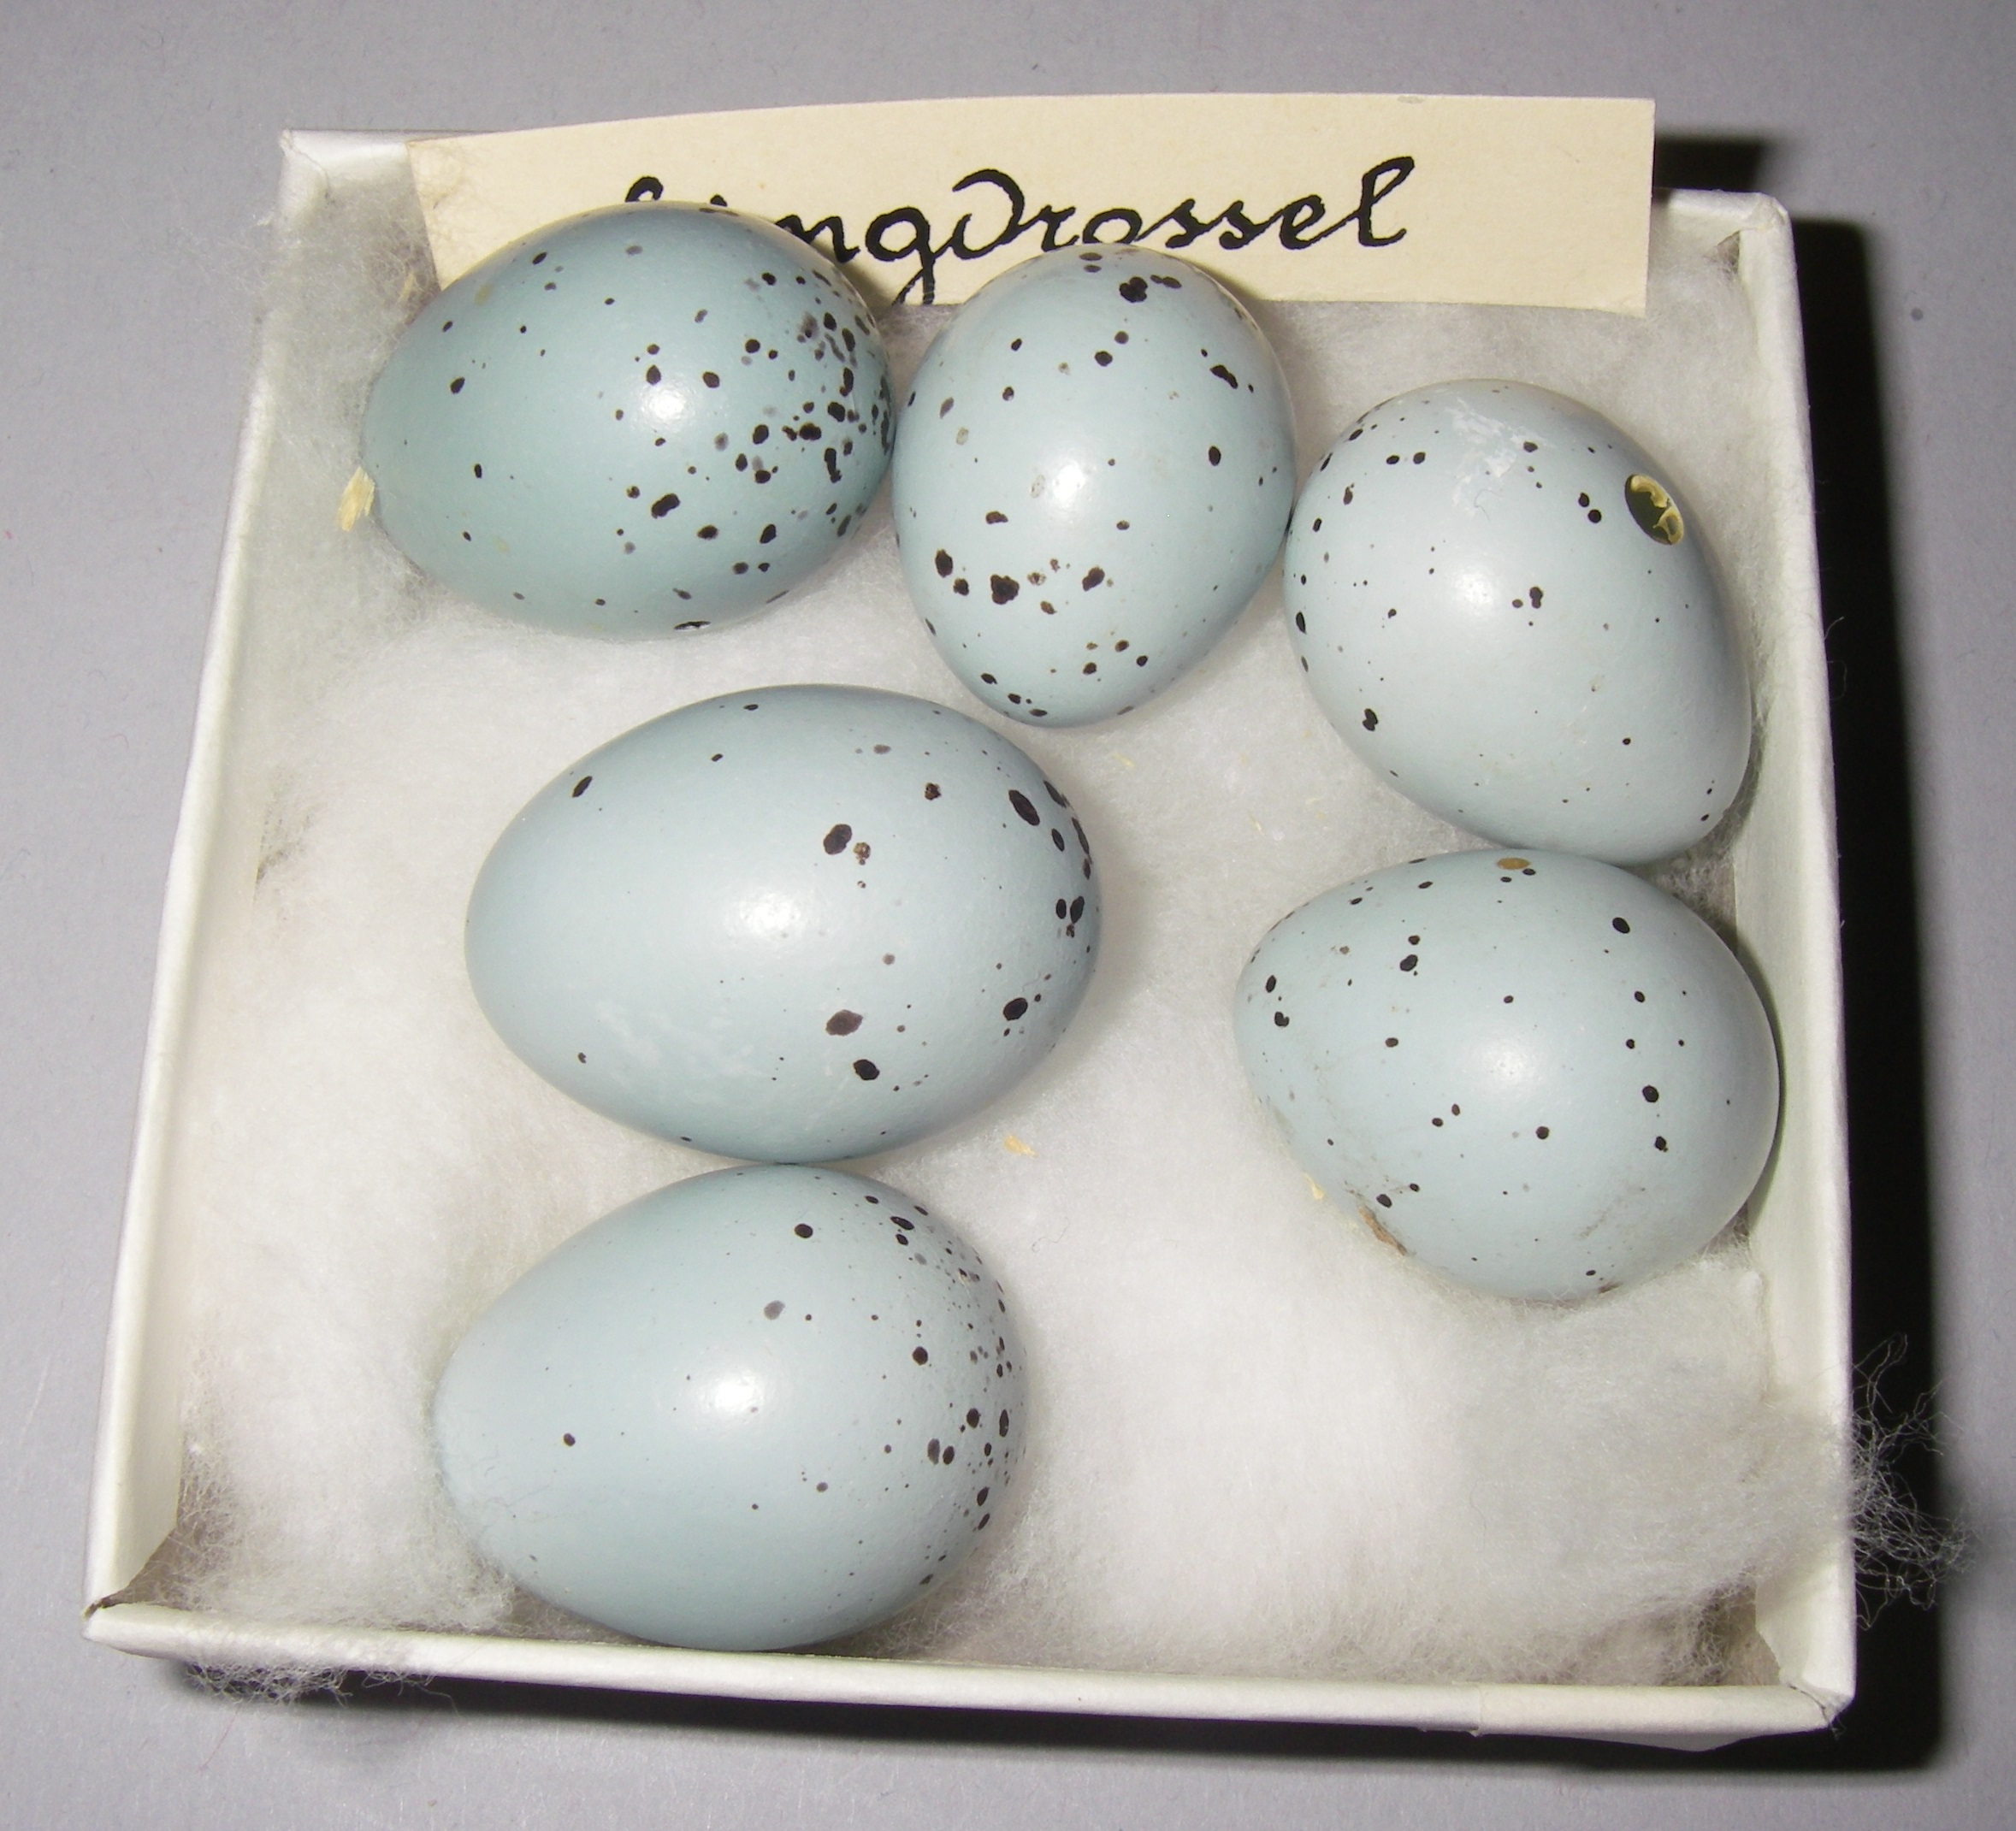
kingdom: Animalia
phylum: Chordata
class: Aves
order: Passeriformes
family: Turdidae
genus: Turdus
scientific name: Turdus philomelos
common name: Song thrush
